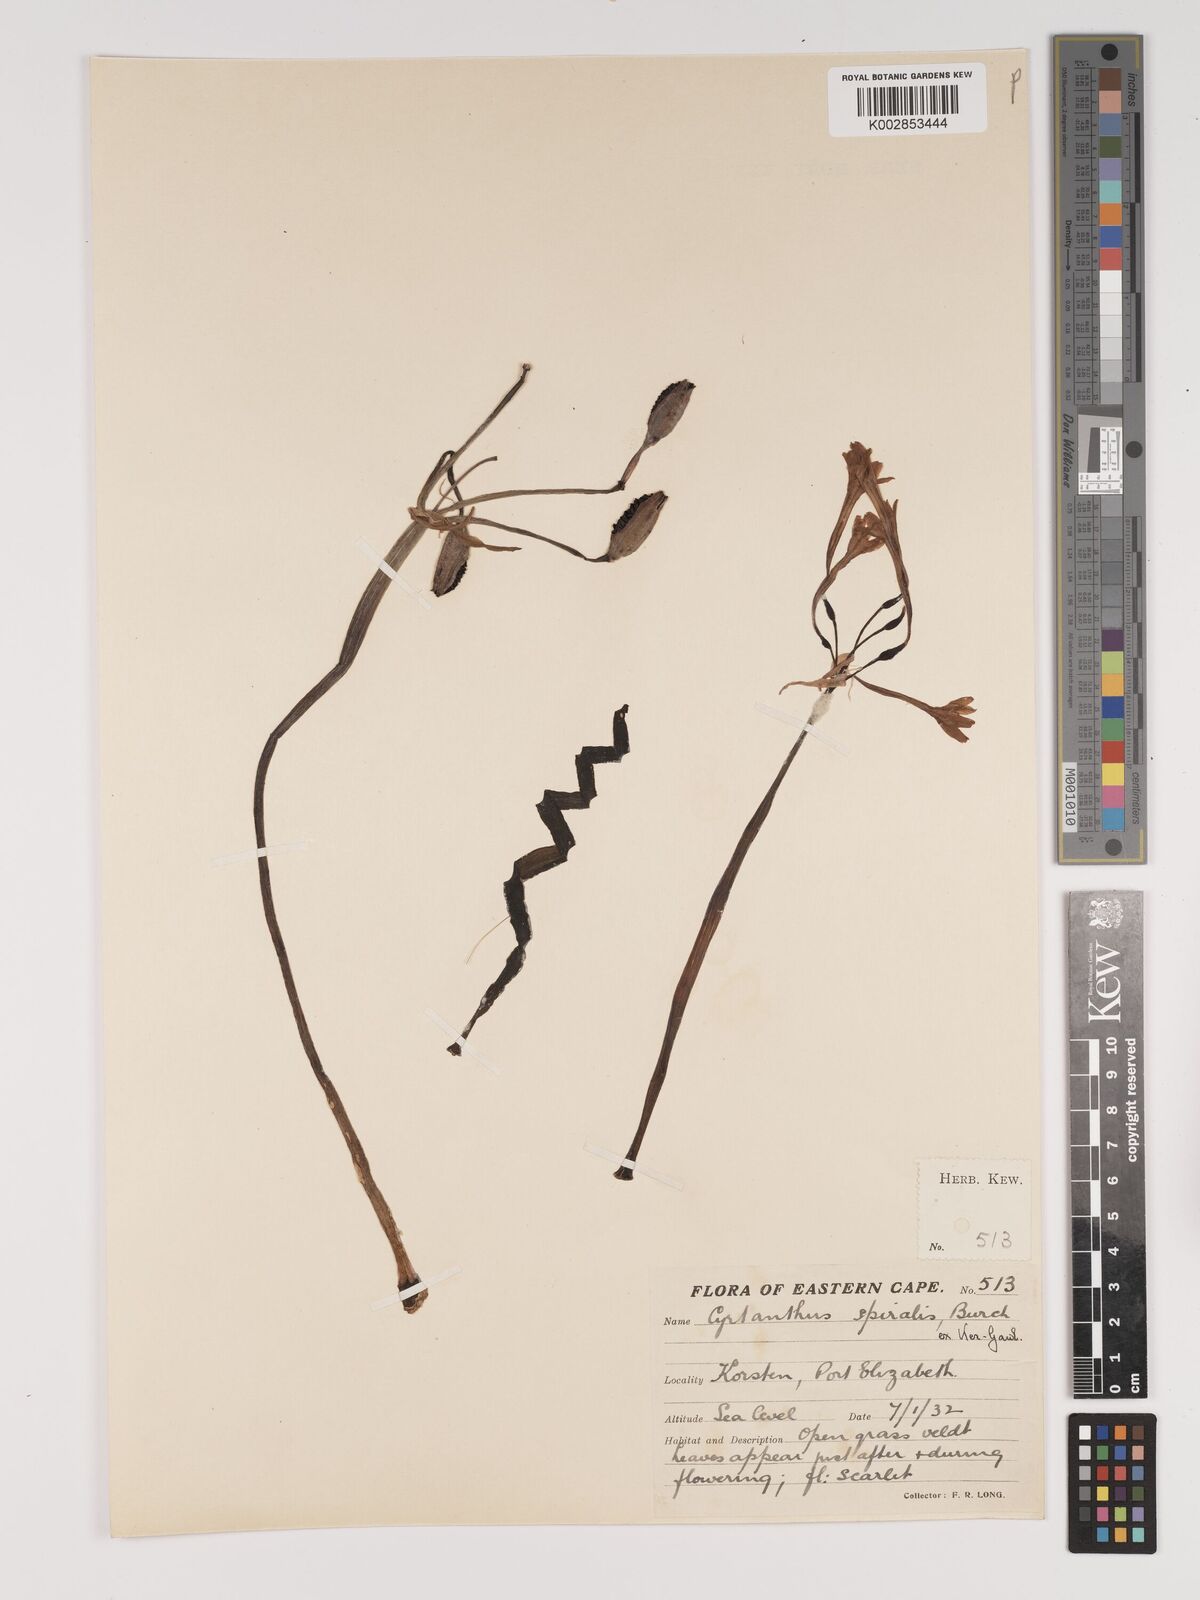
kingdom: Plantae
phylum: Tracheophyta
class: Liliopsida
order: Asparagales
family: Amaryllidaceae
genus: Cyrtanthus
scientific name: Cyrtanthus spiralis
